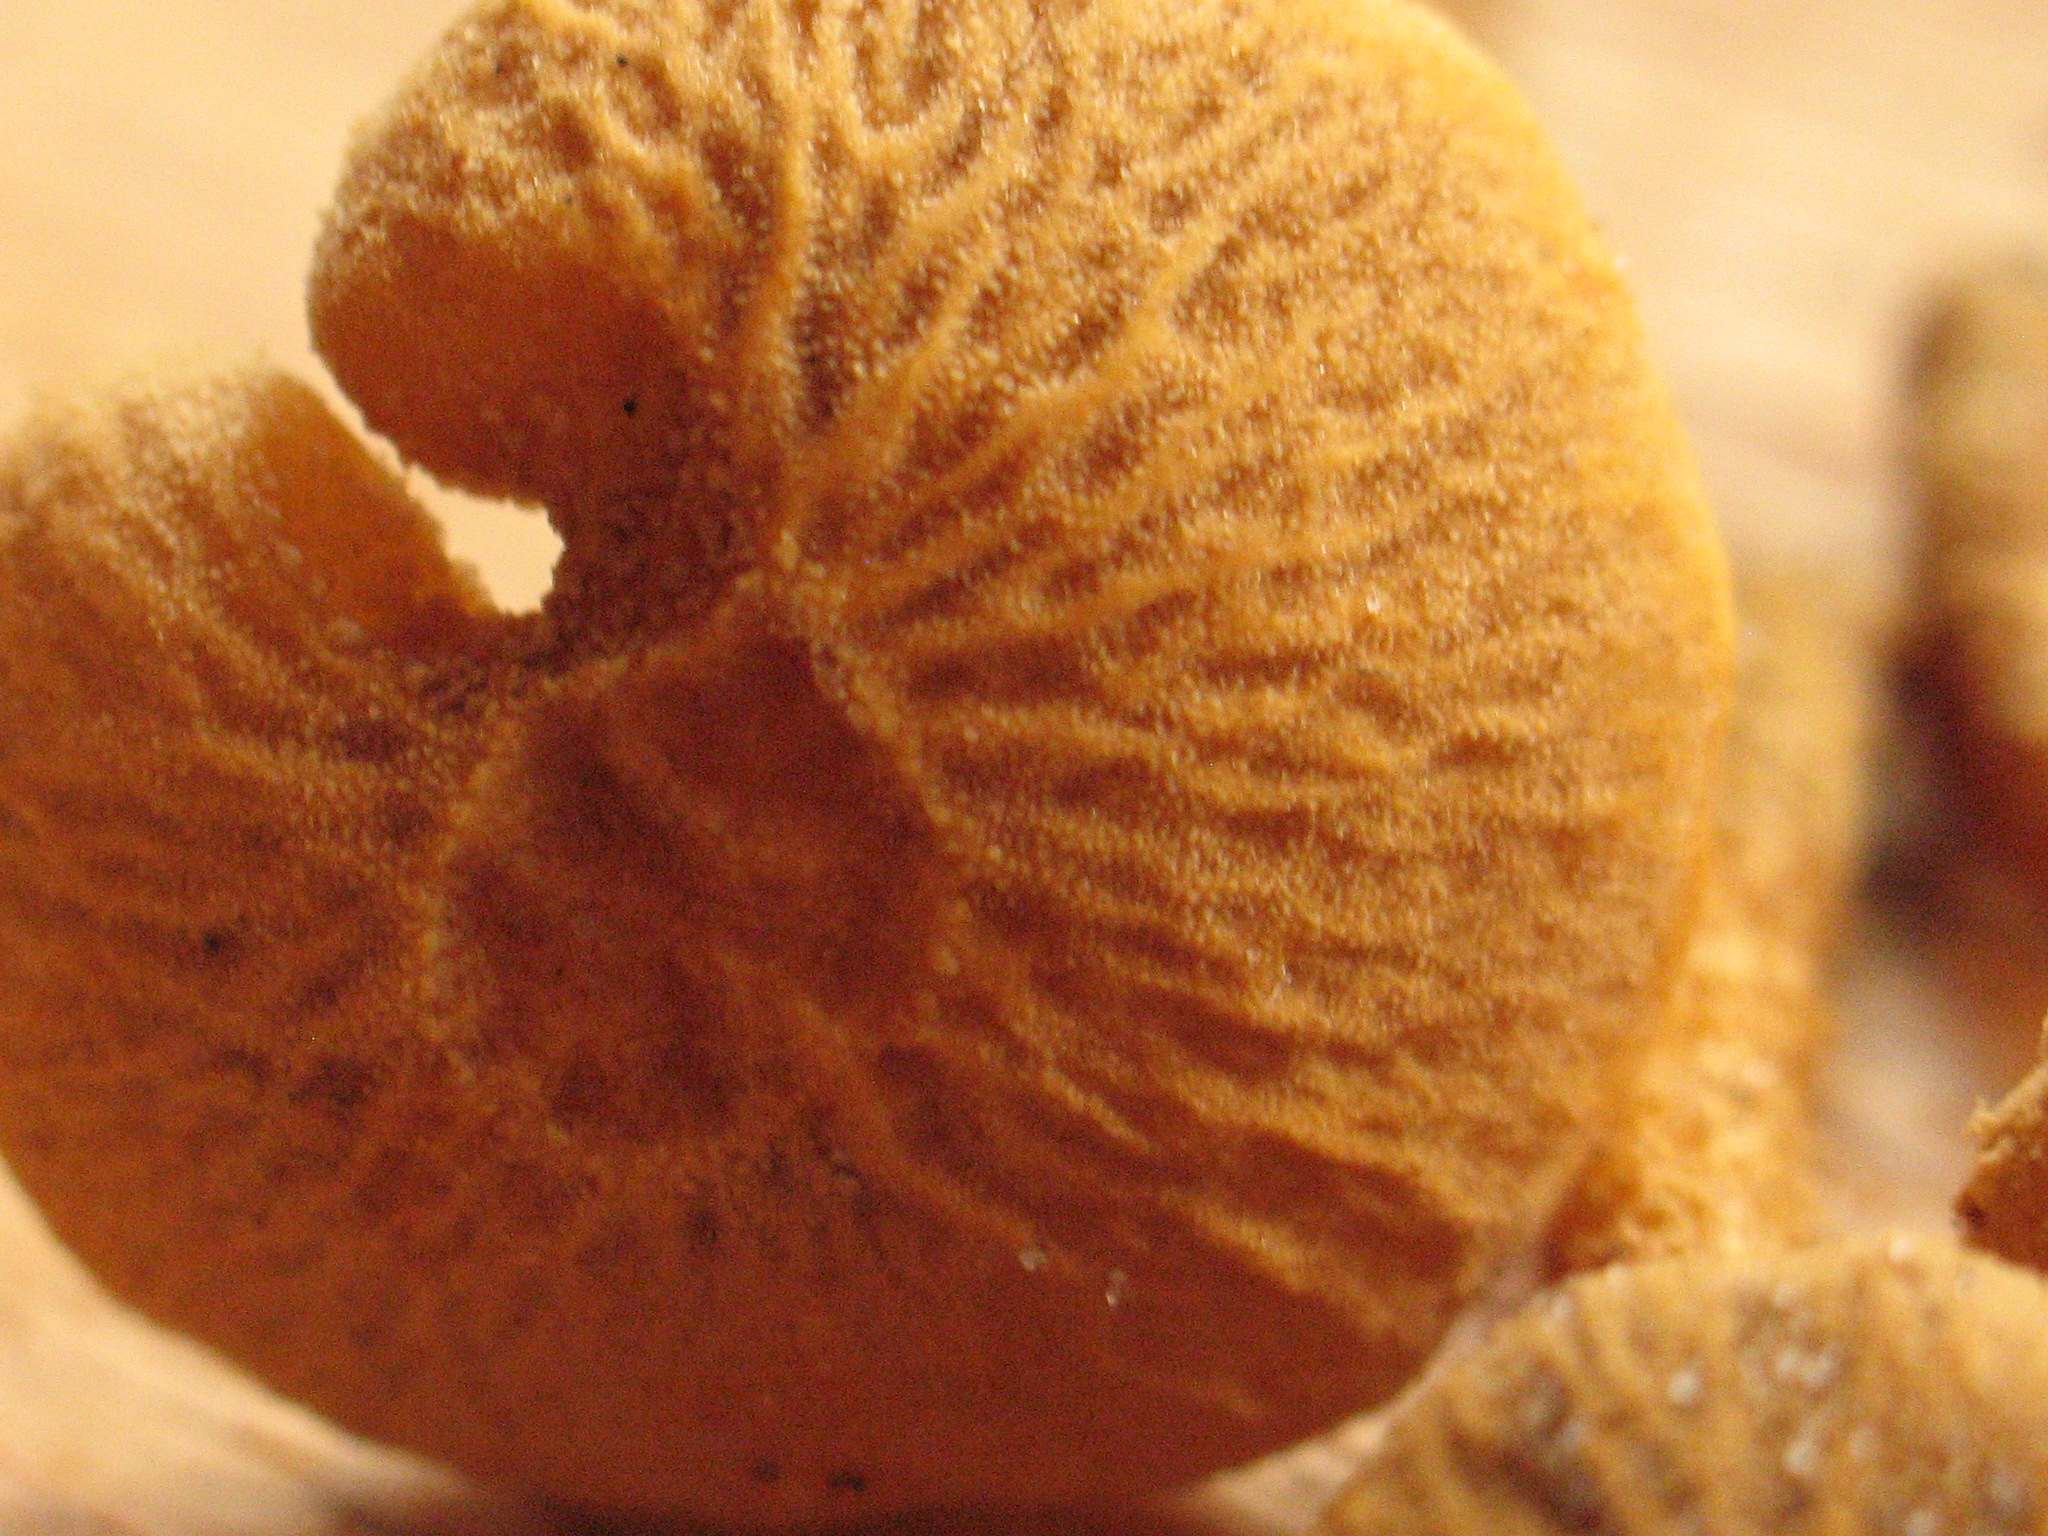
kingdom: Fungi
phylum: Basidiomycota
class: Agaricomycetes
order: Agaricales
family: Tricholomataceae
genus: Cystoderma
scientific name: Cystoderma amianthinum
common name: okkergul grynhat
